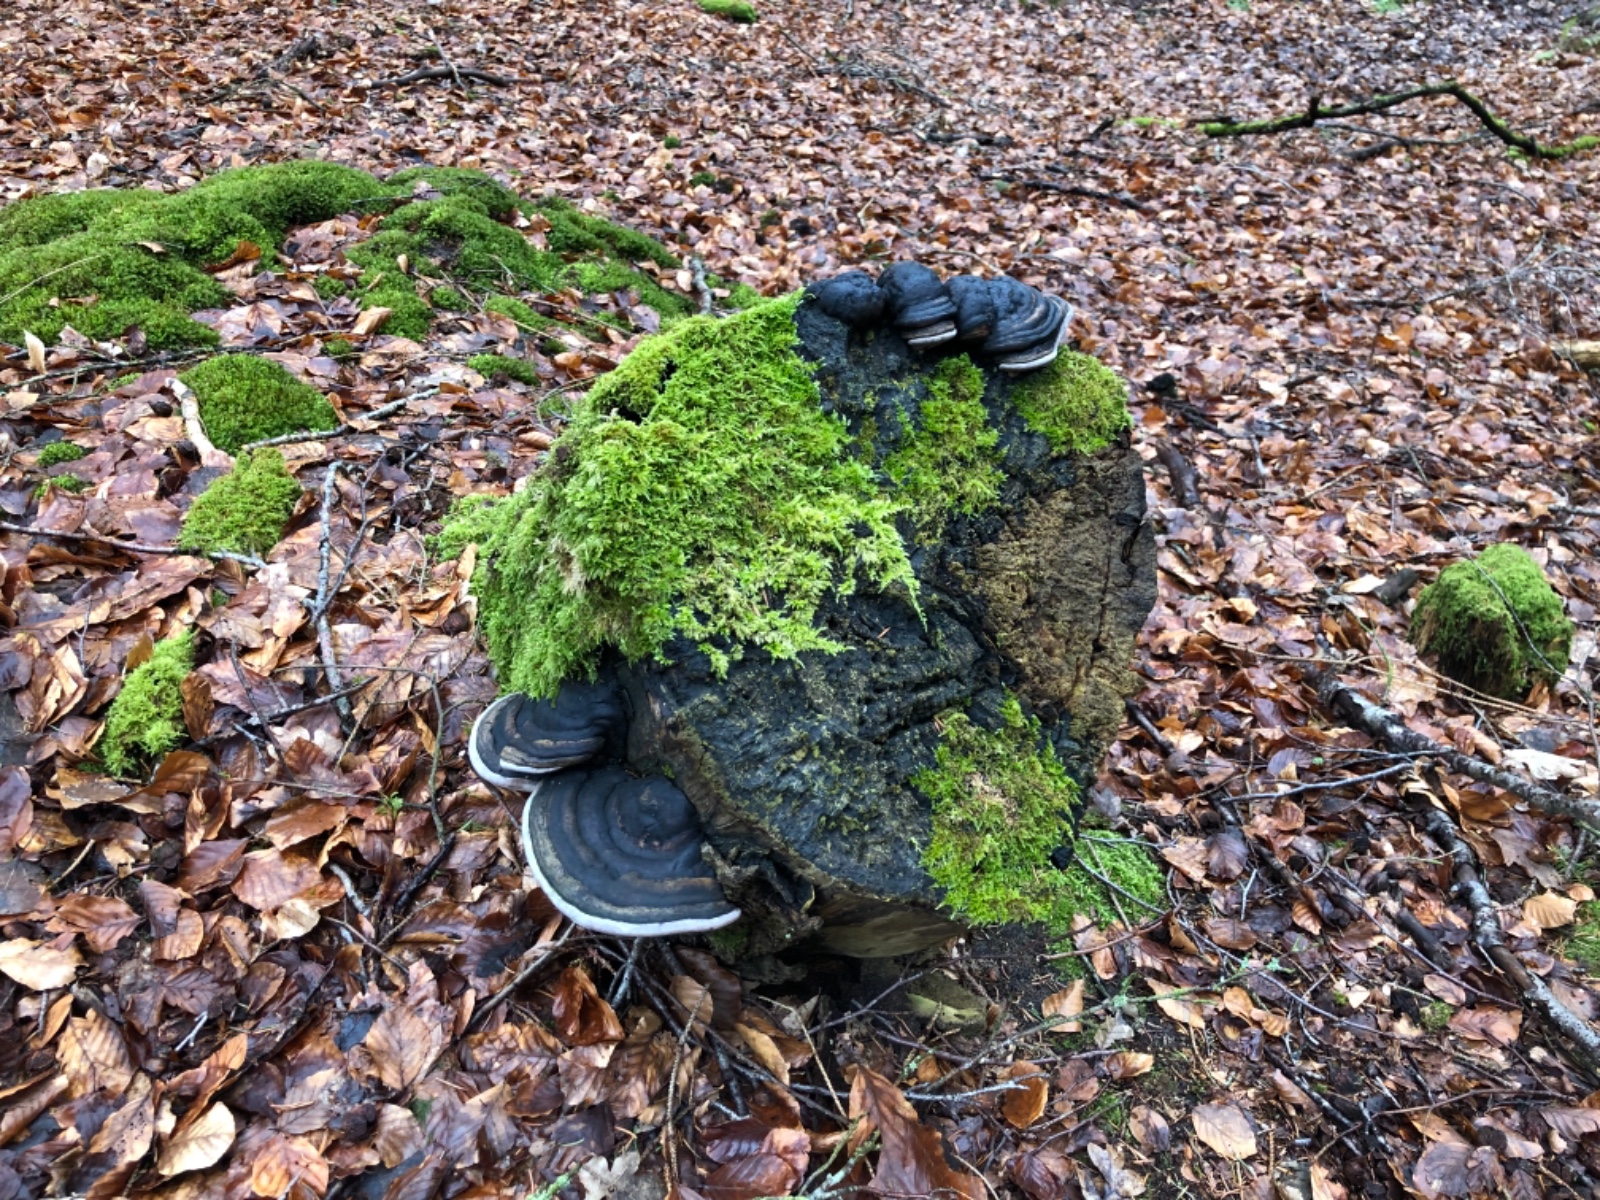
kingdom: Fungi
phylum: Basidiomycota
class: Agaricomycetes
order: Hymenochaetales
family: Hymenochaetaceae
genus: Phellinus
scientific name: Phellinus populicola
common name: poppel-ildporesvamp
